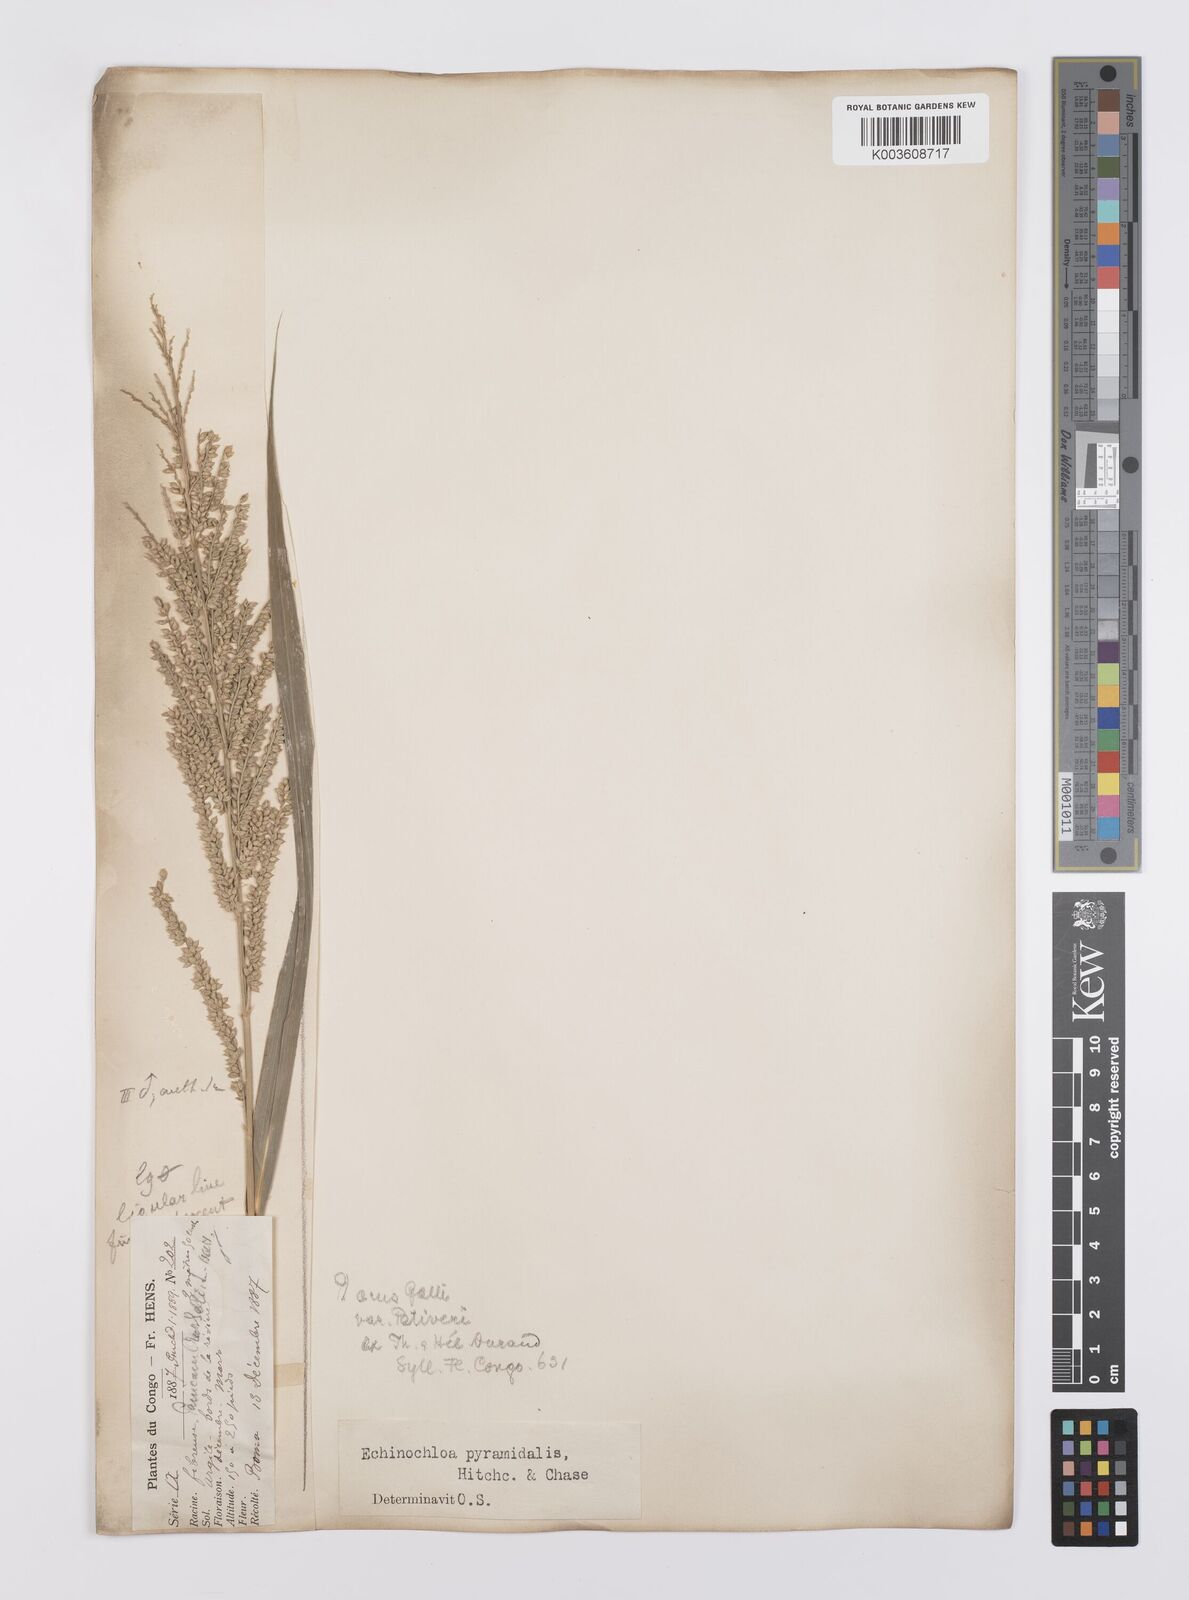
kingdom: Plantae
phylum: Tracheophyta
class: Liliopsida
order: Poales
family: Poaceae
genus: Echinochloa
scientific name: Echinochloa pyramidalis
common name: Antelope grass
